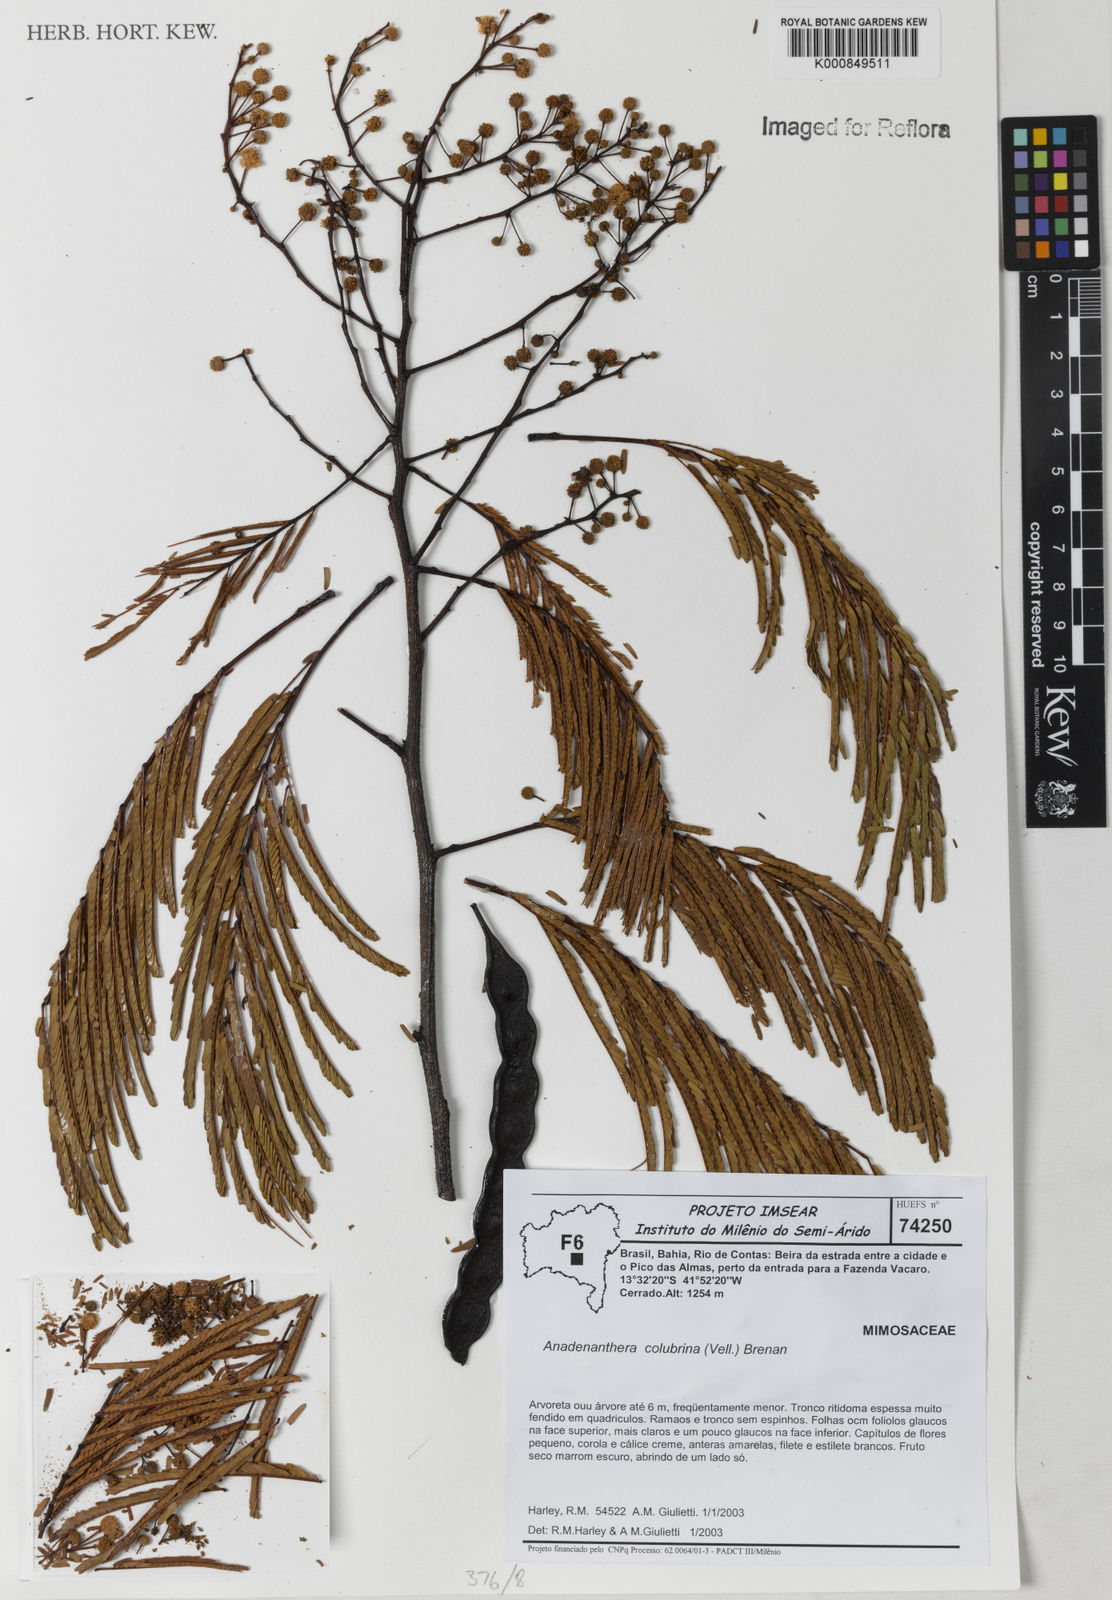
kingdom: Plantae
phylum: Tracheophyta
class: Magnoliopsida
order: Fabales
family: Fabaceae
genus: Anadenanthera
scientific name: Anadenanthera colubrina
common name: Curupay
